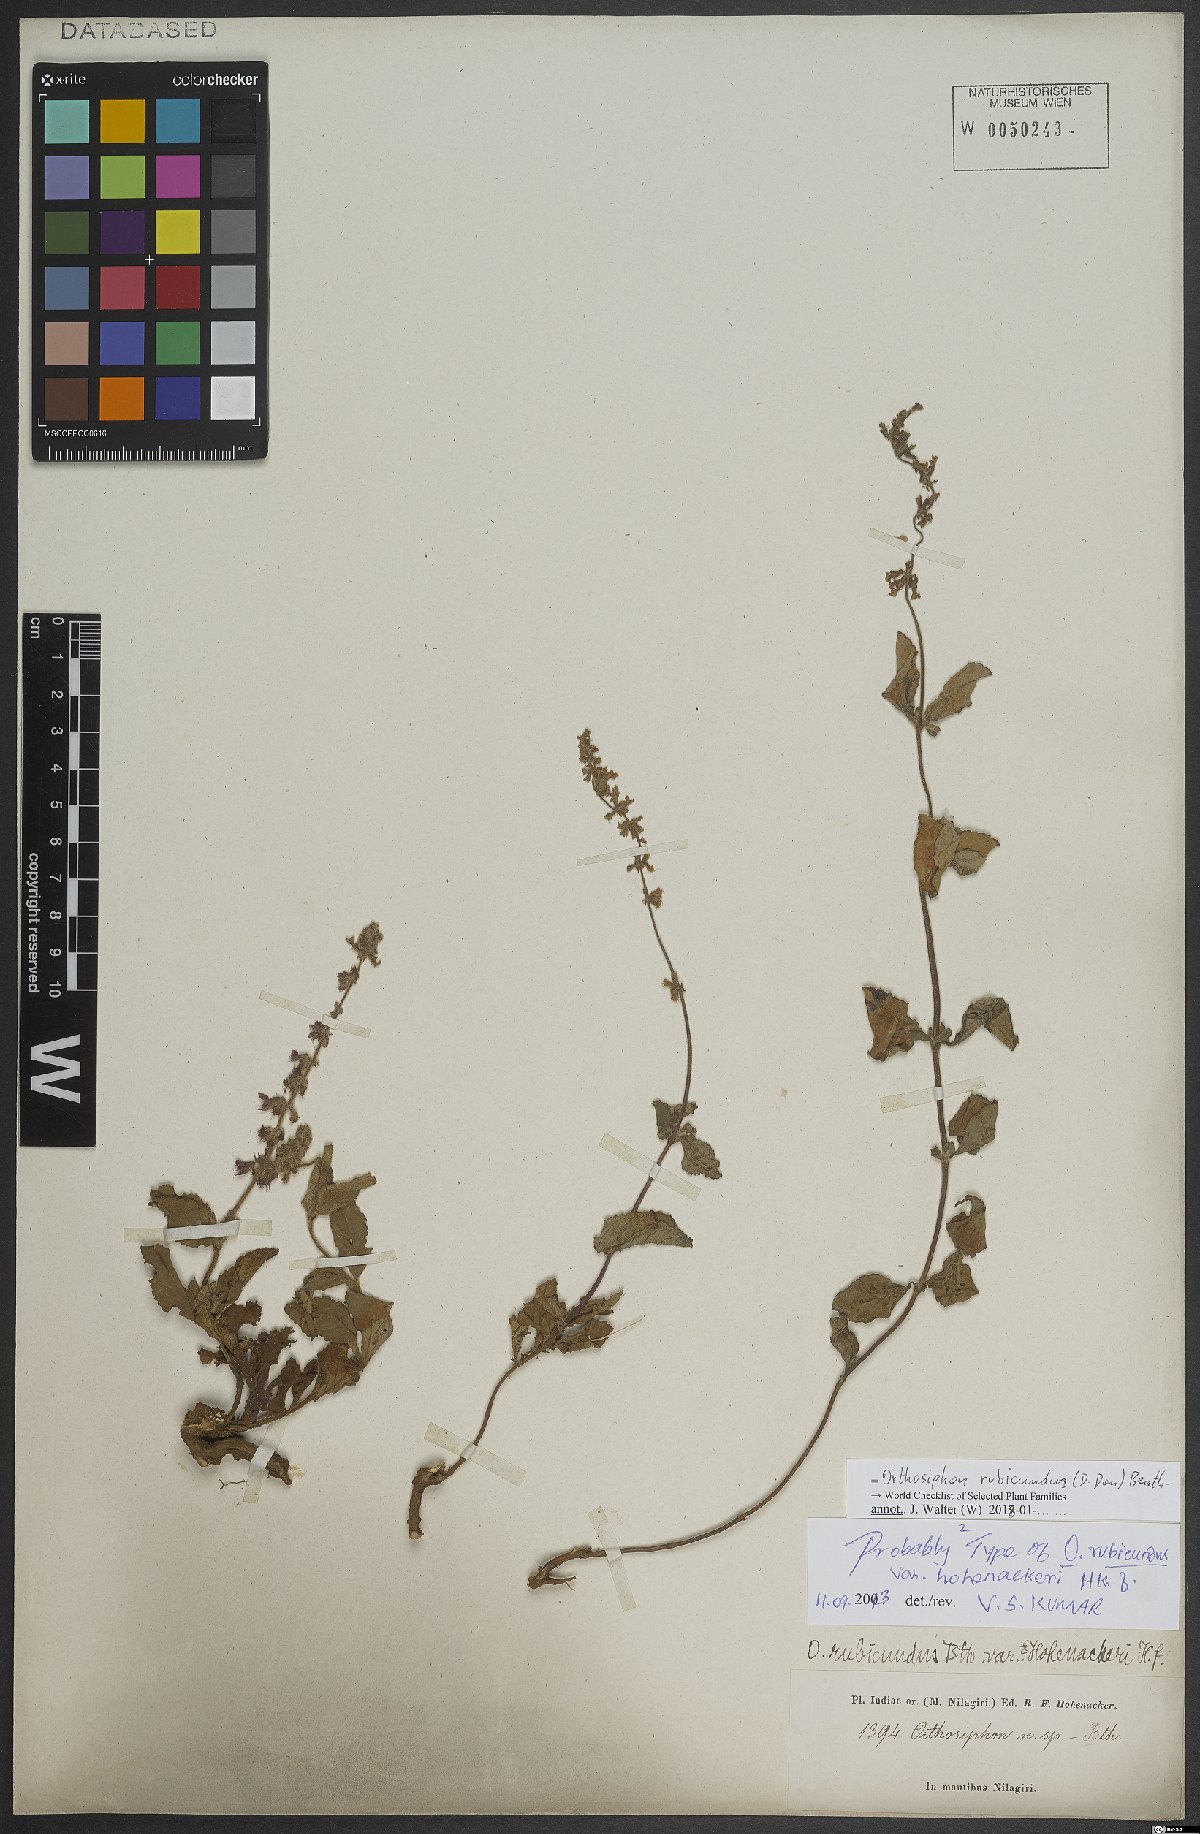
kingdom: Plantae
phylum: Tracheophyta
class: Magnoliopsida
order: Lamiales
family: Lamiaceae
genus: Orthosiphon
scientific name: Orthosiphon rubicundus
